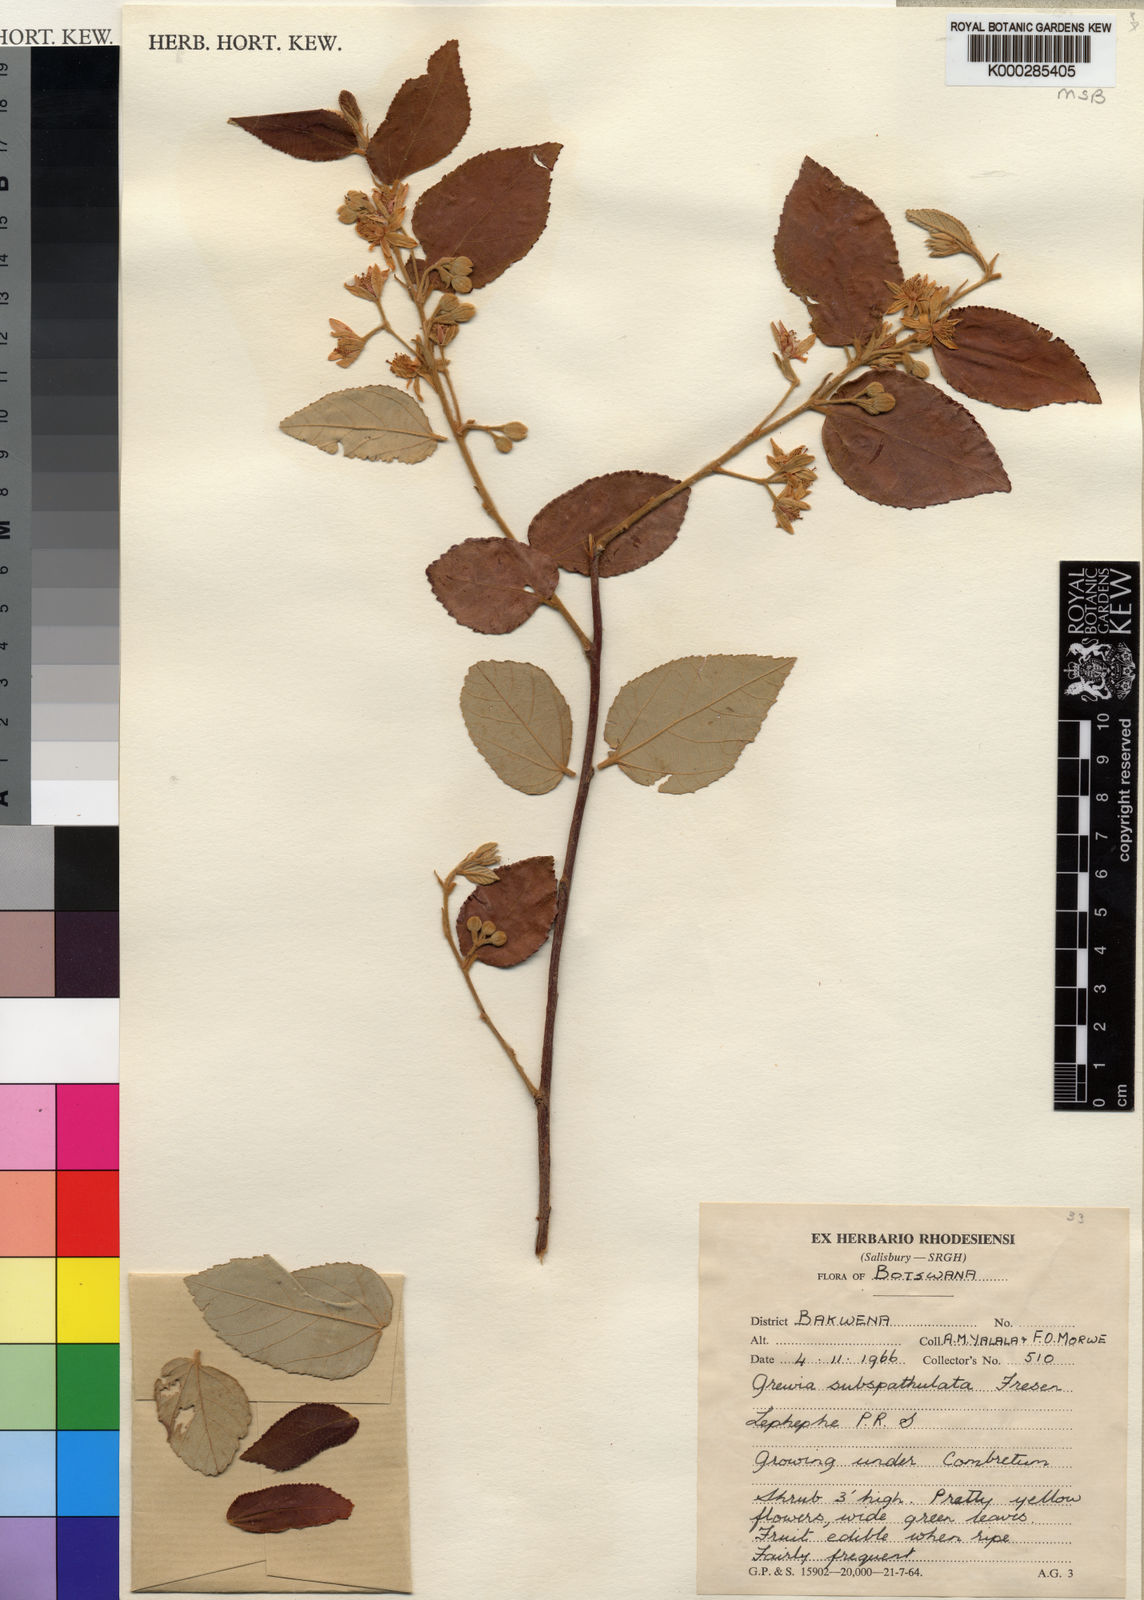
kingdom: Plantae
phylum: Tracheophyta
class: Magnoliopsida
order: Malvales
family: Malvaceae
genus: Grewia
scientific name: Grewia subspathulata
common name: False grey raisin
